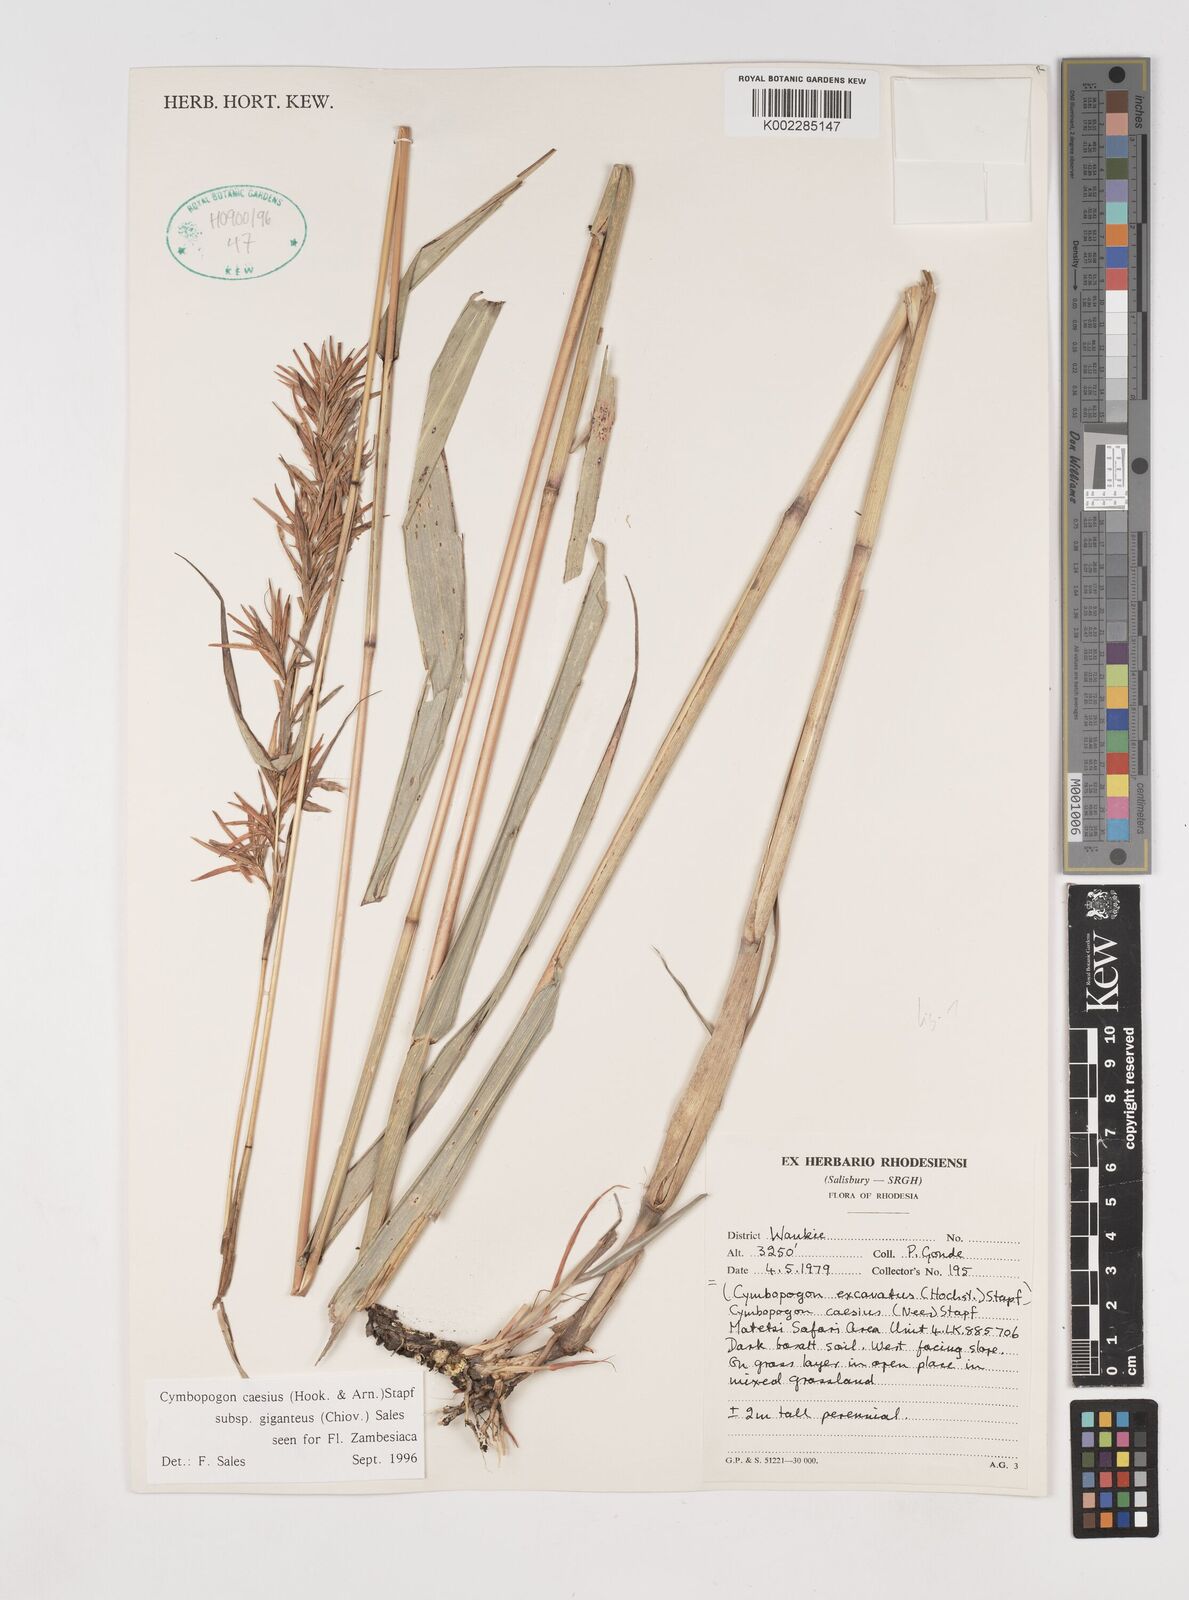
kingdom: Plantae
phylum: Tracheophyta
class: Liliopsida
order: Poales
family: Poaceae
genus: Cymbopogon
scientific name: Cymbopogon giganteus
